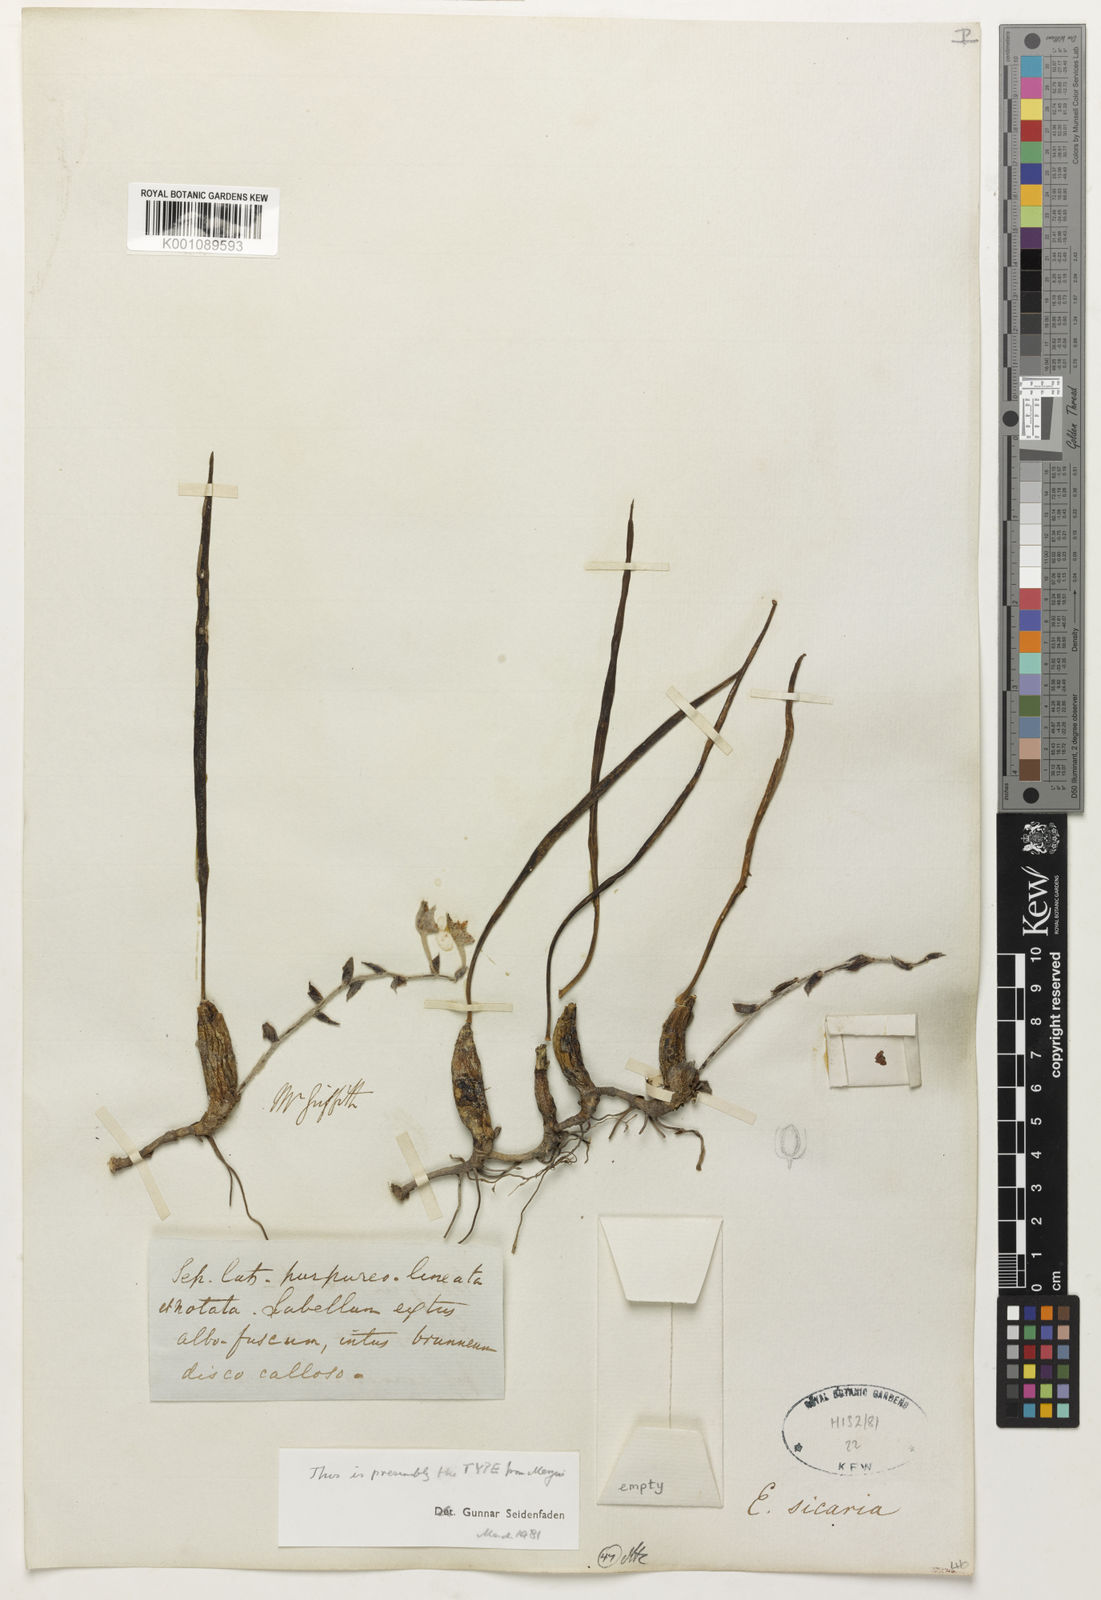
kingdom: Plantae
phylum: Tracheophyta
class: Liliopsida
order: Asparagales
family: Orchidaceae
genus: Dendrolirium
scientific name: Dendrolirium sicarium
